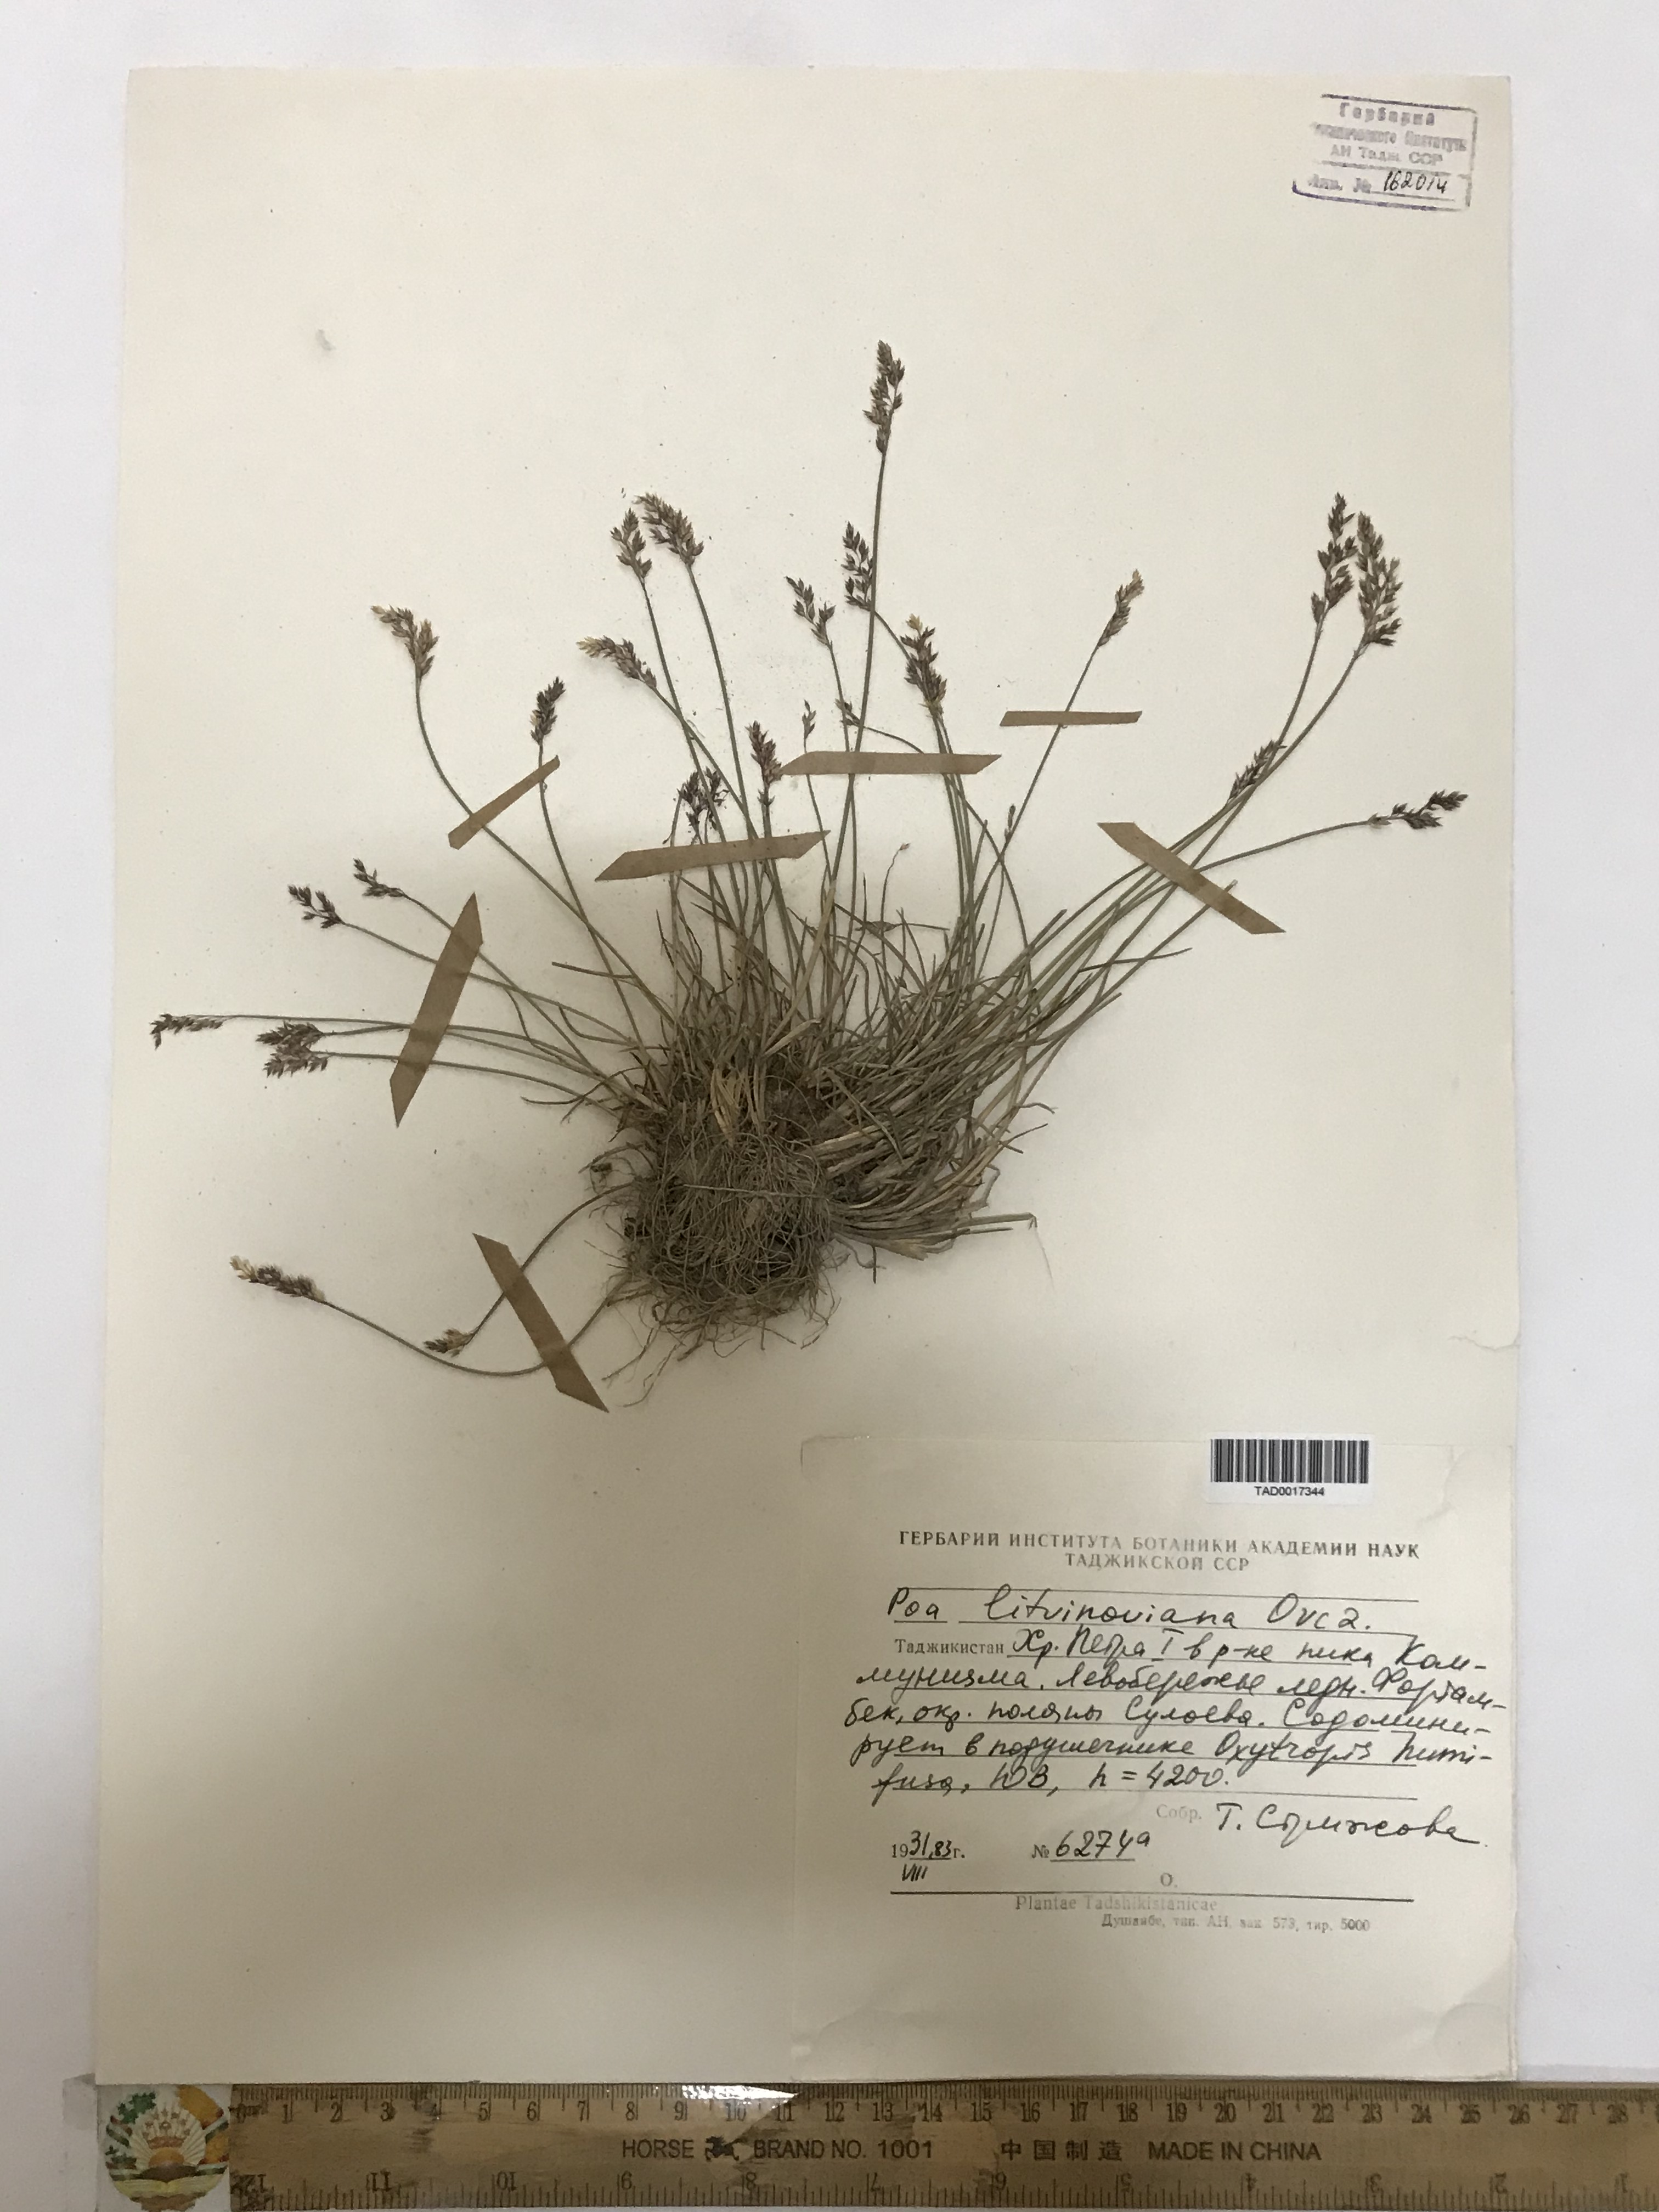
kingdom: Plantae
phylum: Tracheophyta
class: Liliopsida
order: Poales
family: Poaceae
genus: Poa
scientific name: Poa glauca
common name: Glaucous bluegrass
